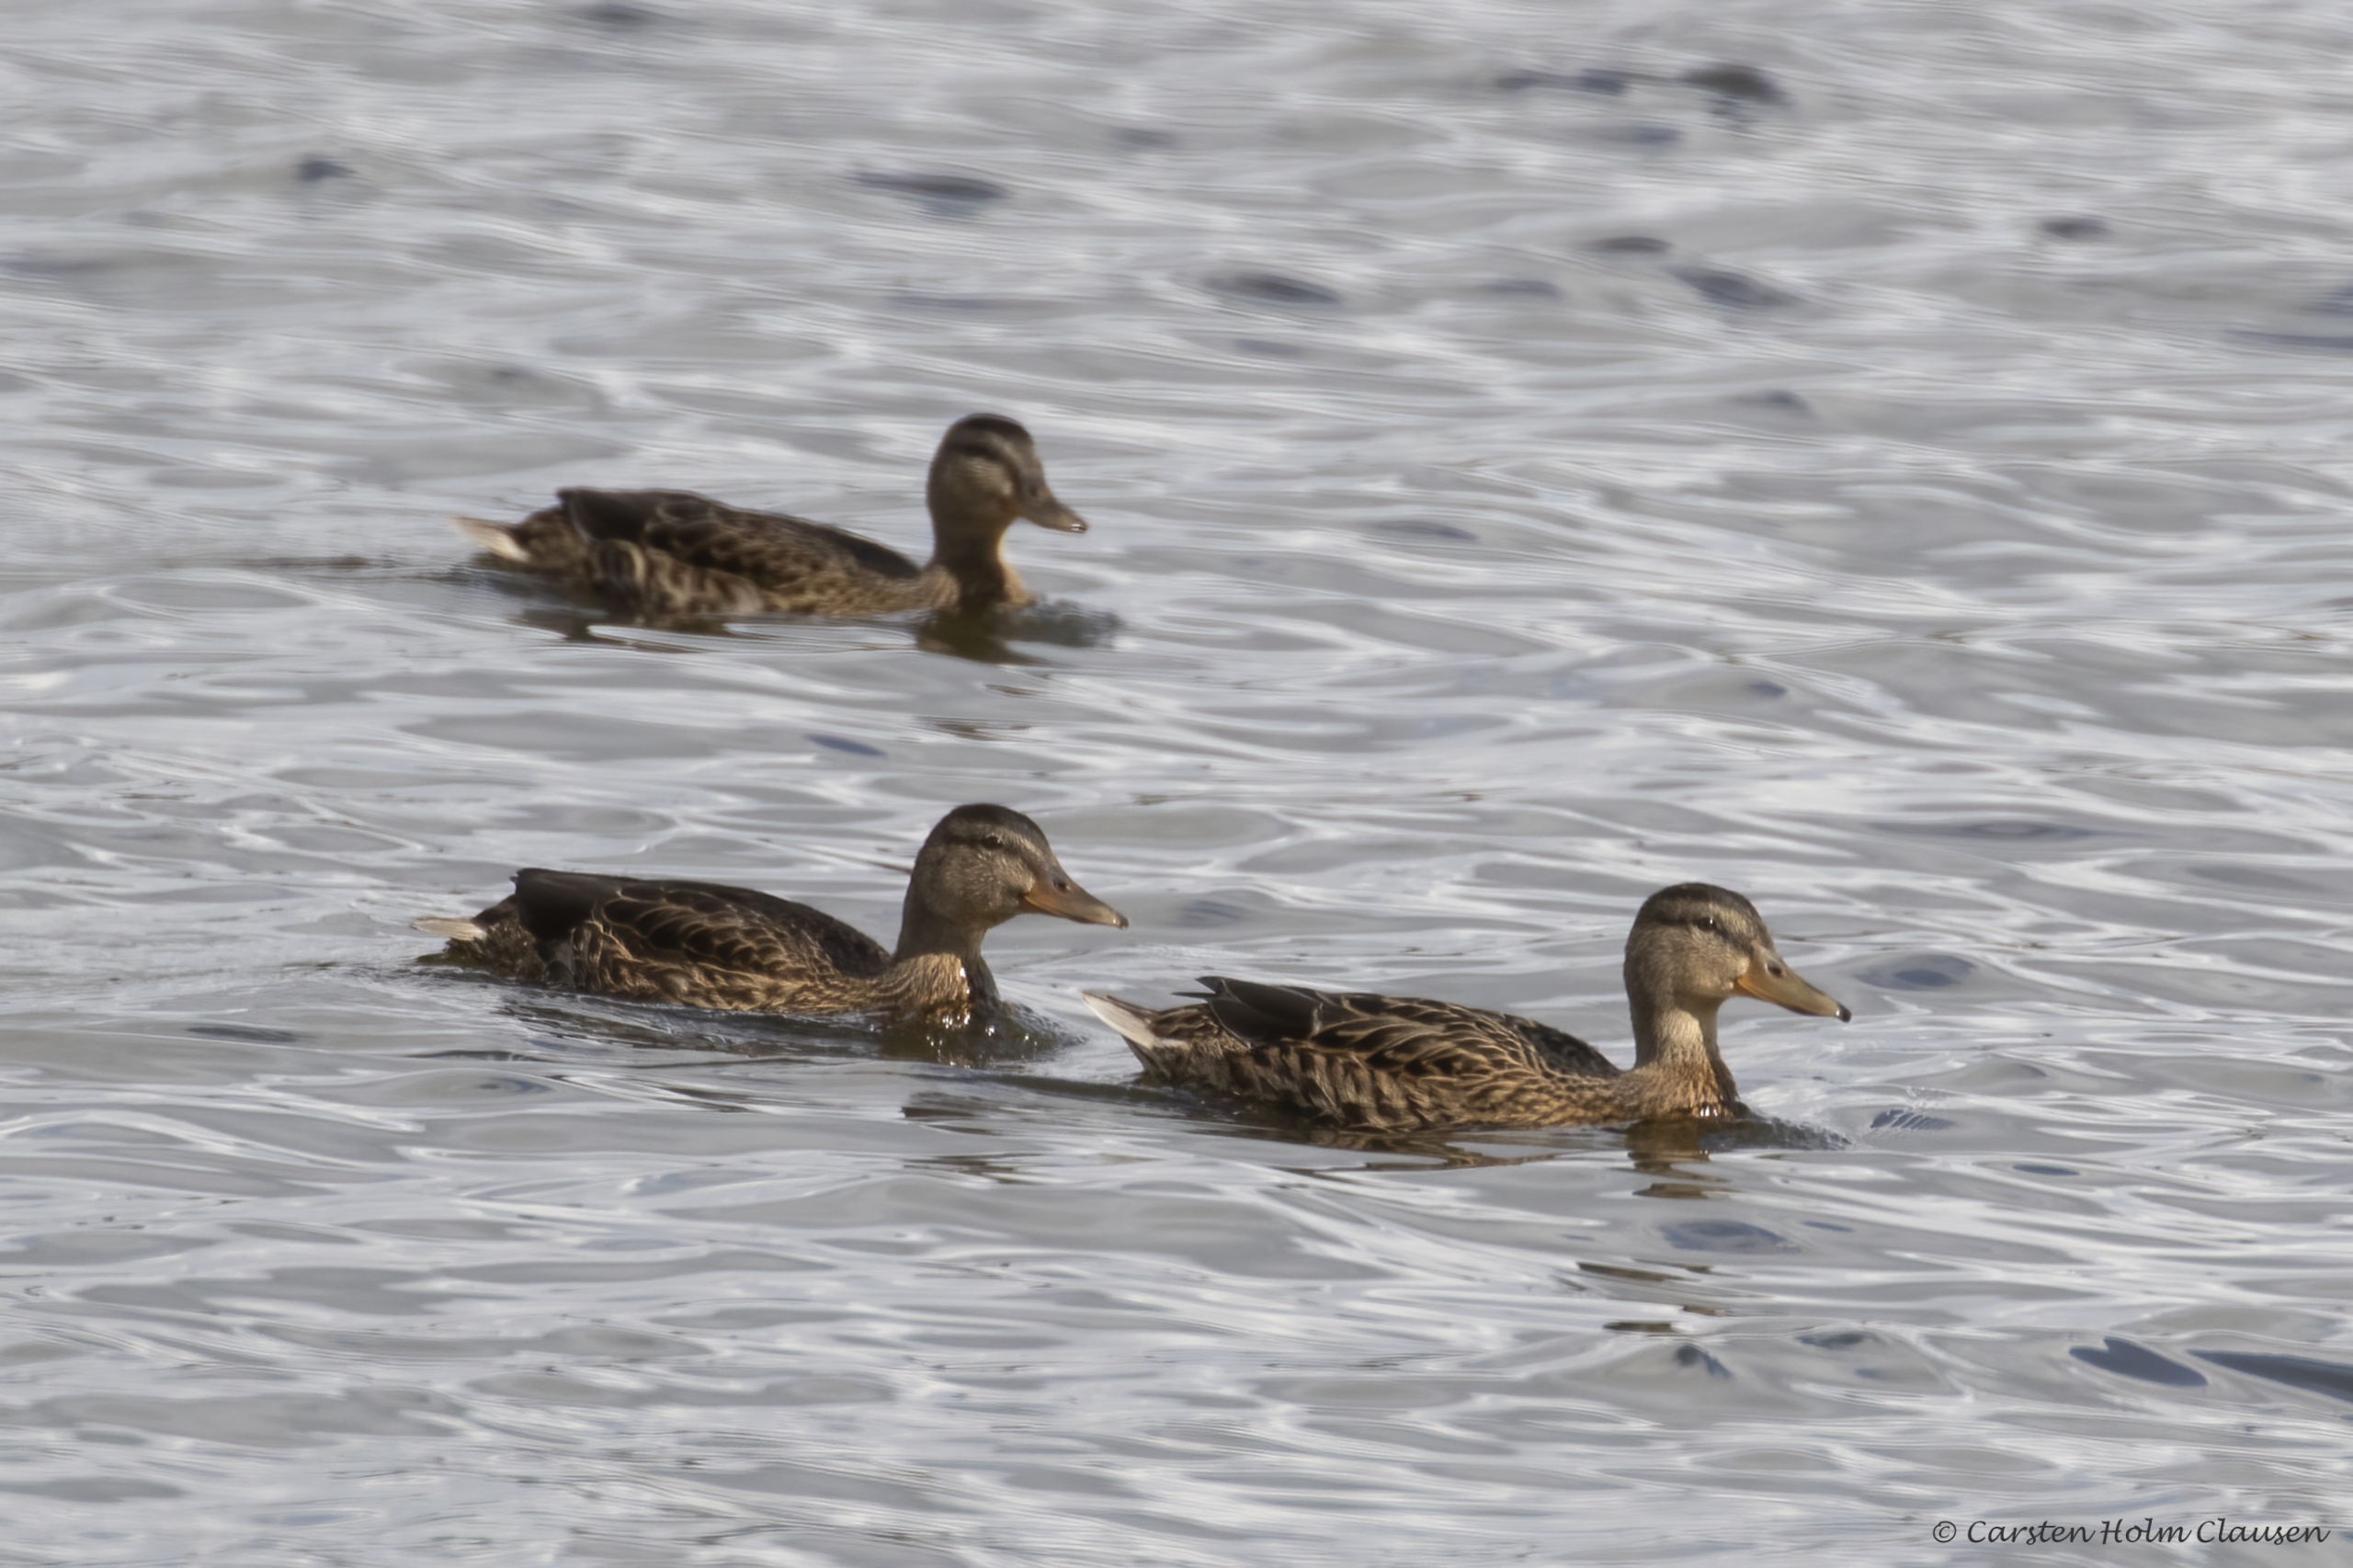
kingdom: Animalia
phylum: Chordata
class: Aves
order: Anseriformes
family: Anatidae
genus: Anas
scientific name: Anas platyrhynchos
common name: Gråand
